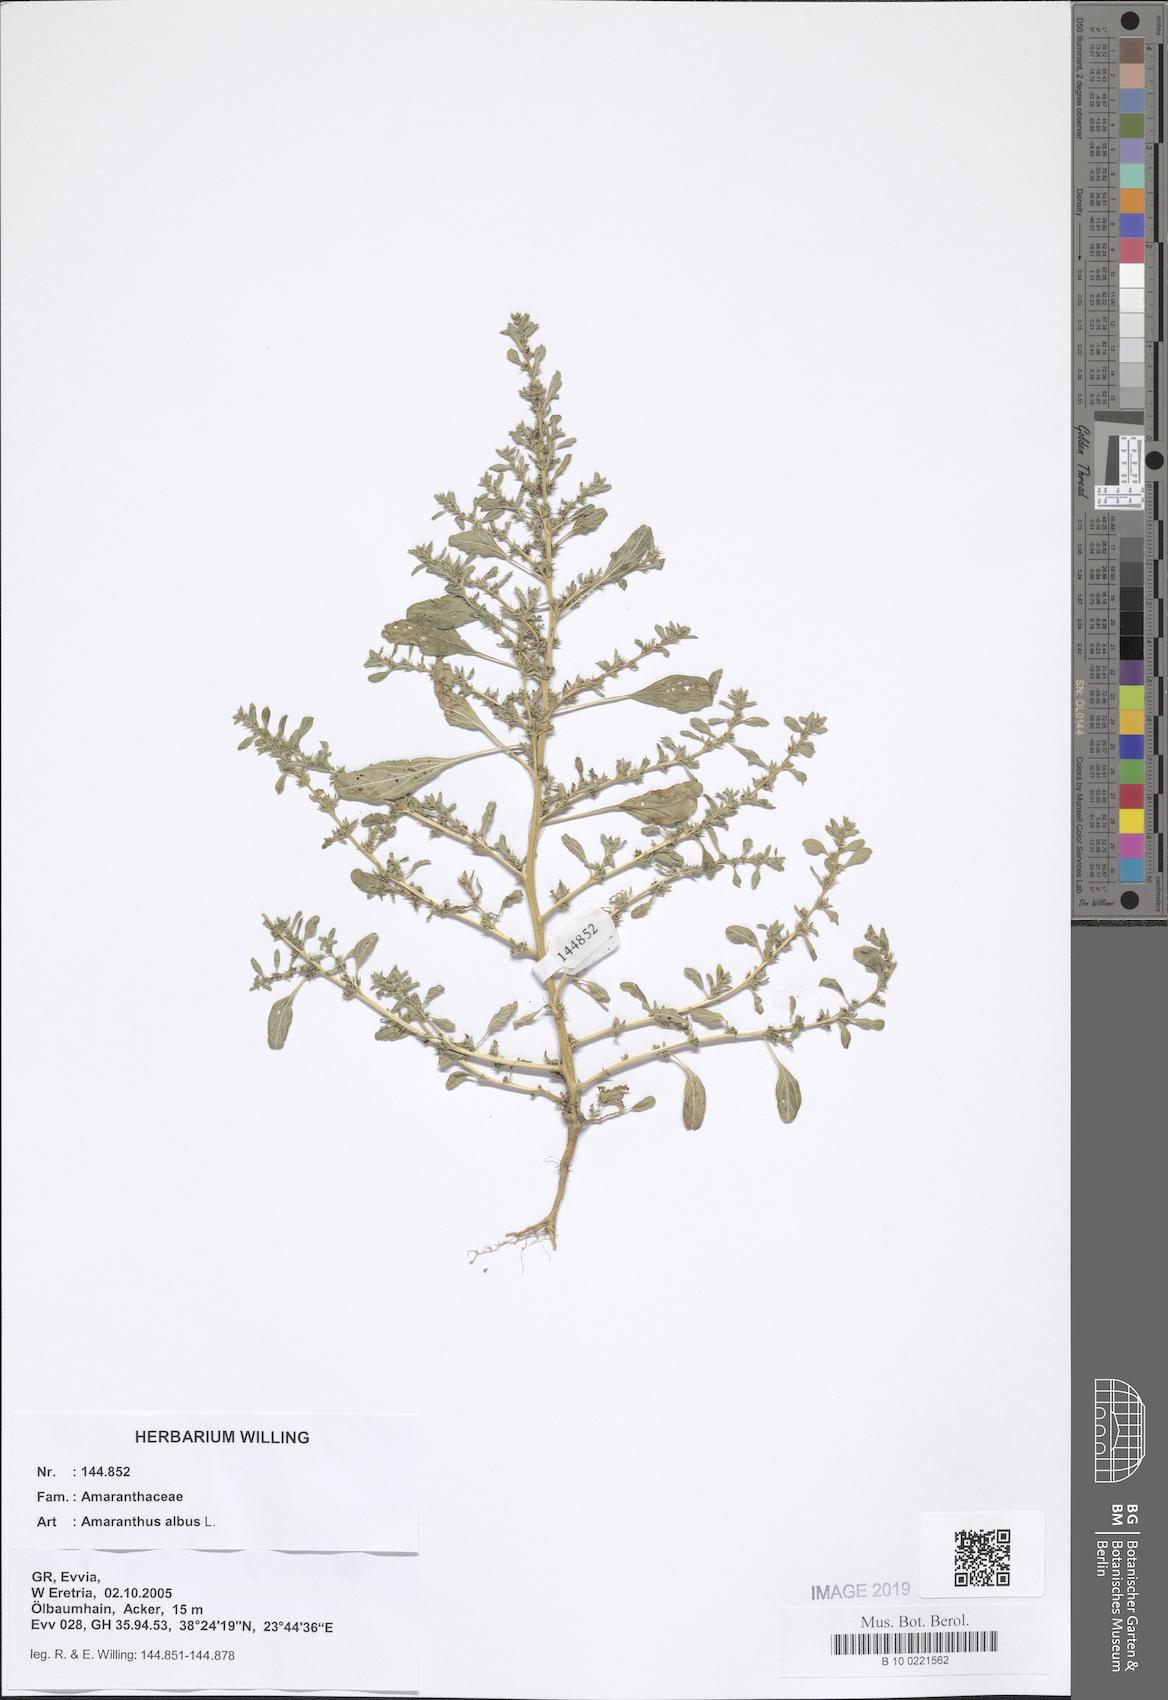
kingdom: Plantae
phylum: Tracheophyta
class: Magnoliopsida
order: Caryophyllales
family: Amaranthaceae
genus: Amaranthus
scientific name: Amaranthus albus
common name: White pigweed
